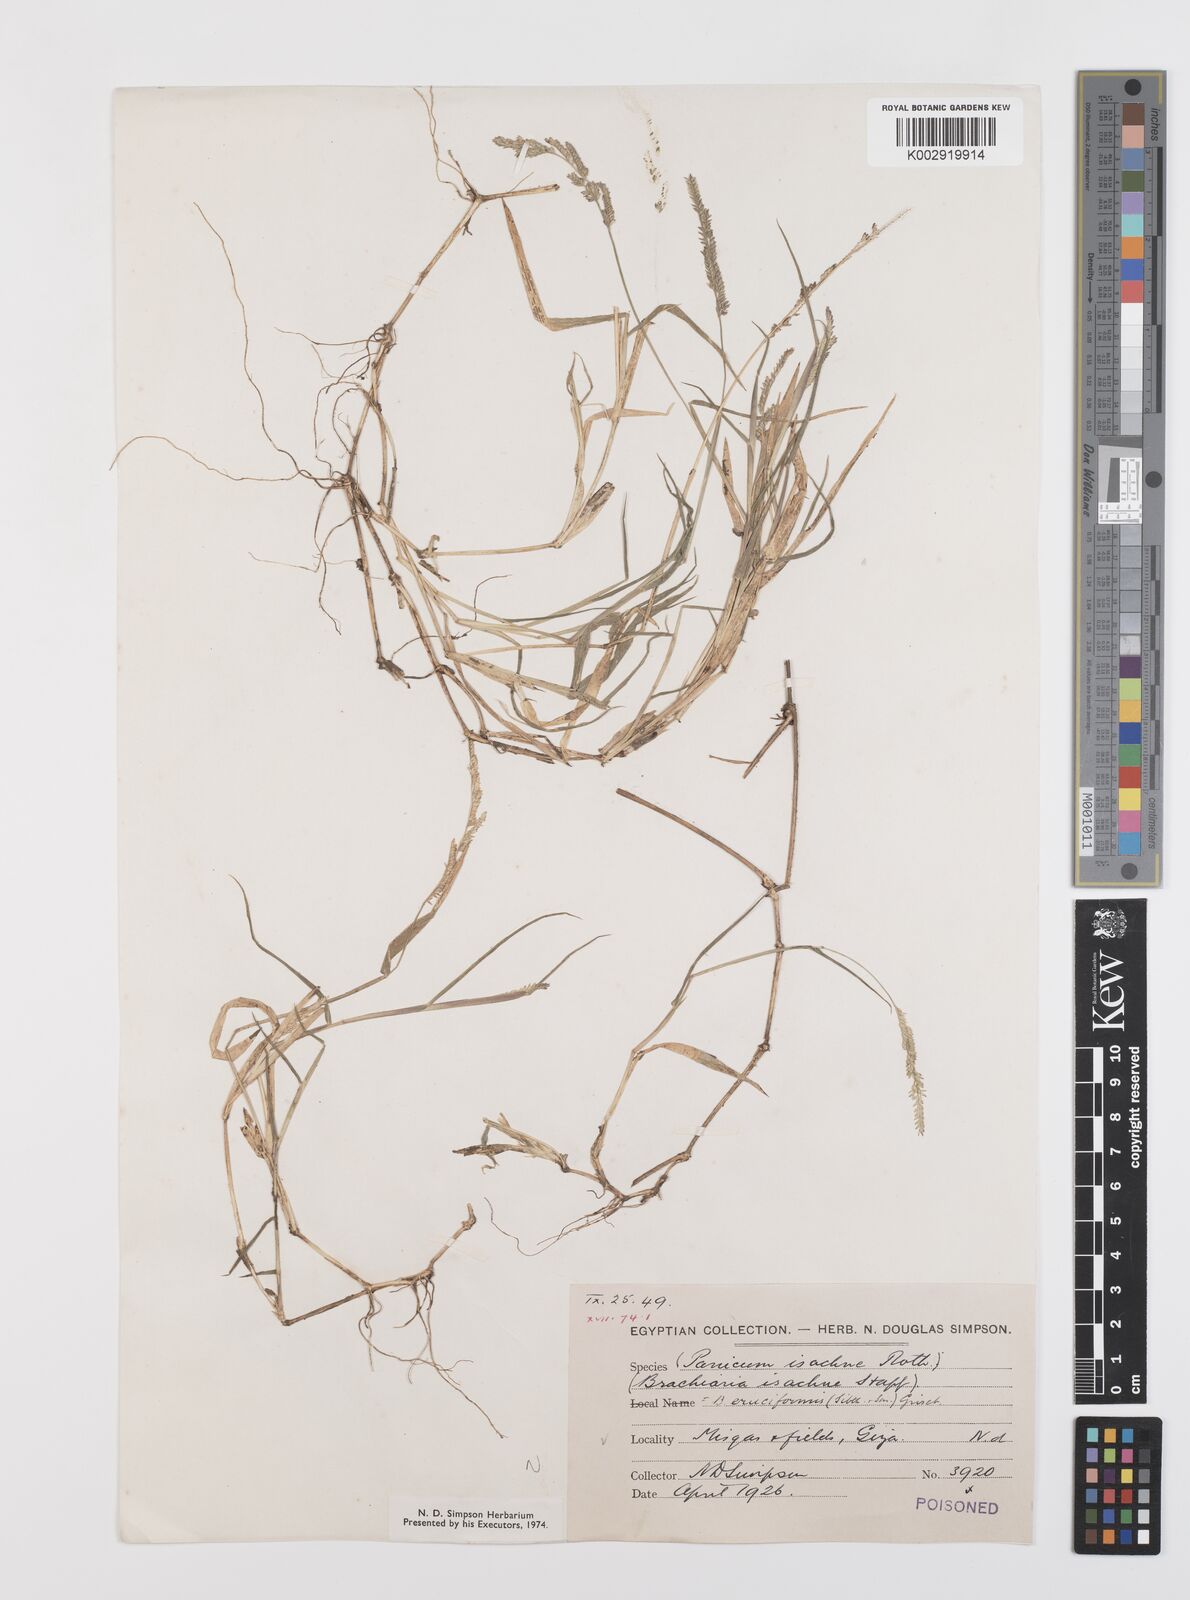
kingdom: Plantae
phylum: Tracheophyta
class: Liliopsida
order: Poales
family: Poaceae
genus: Moorochloa
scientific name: Moorochloa eruciformis
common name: Sweet signalgrass
